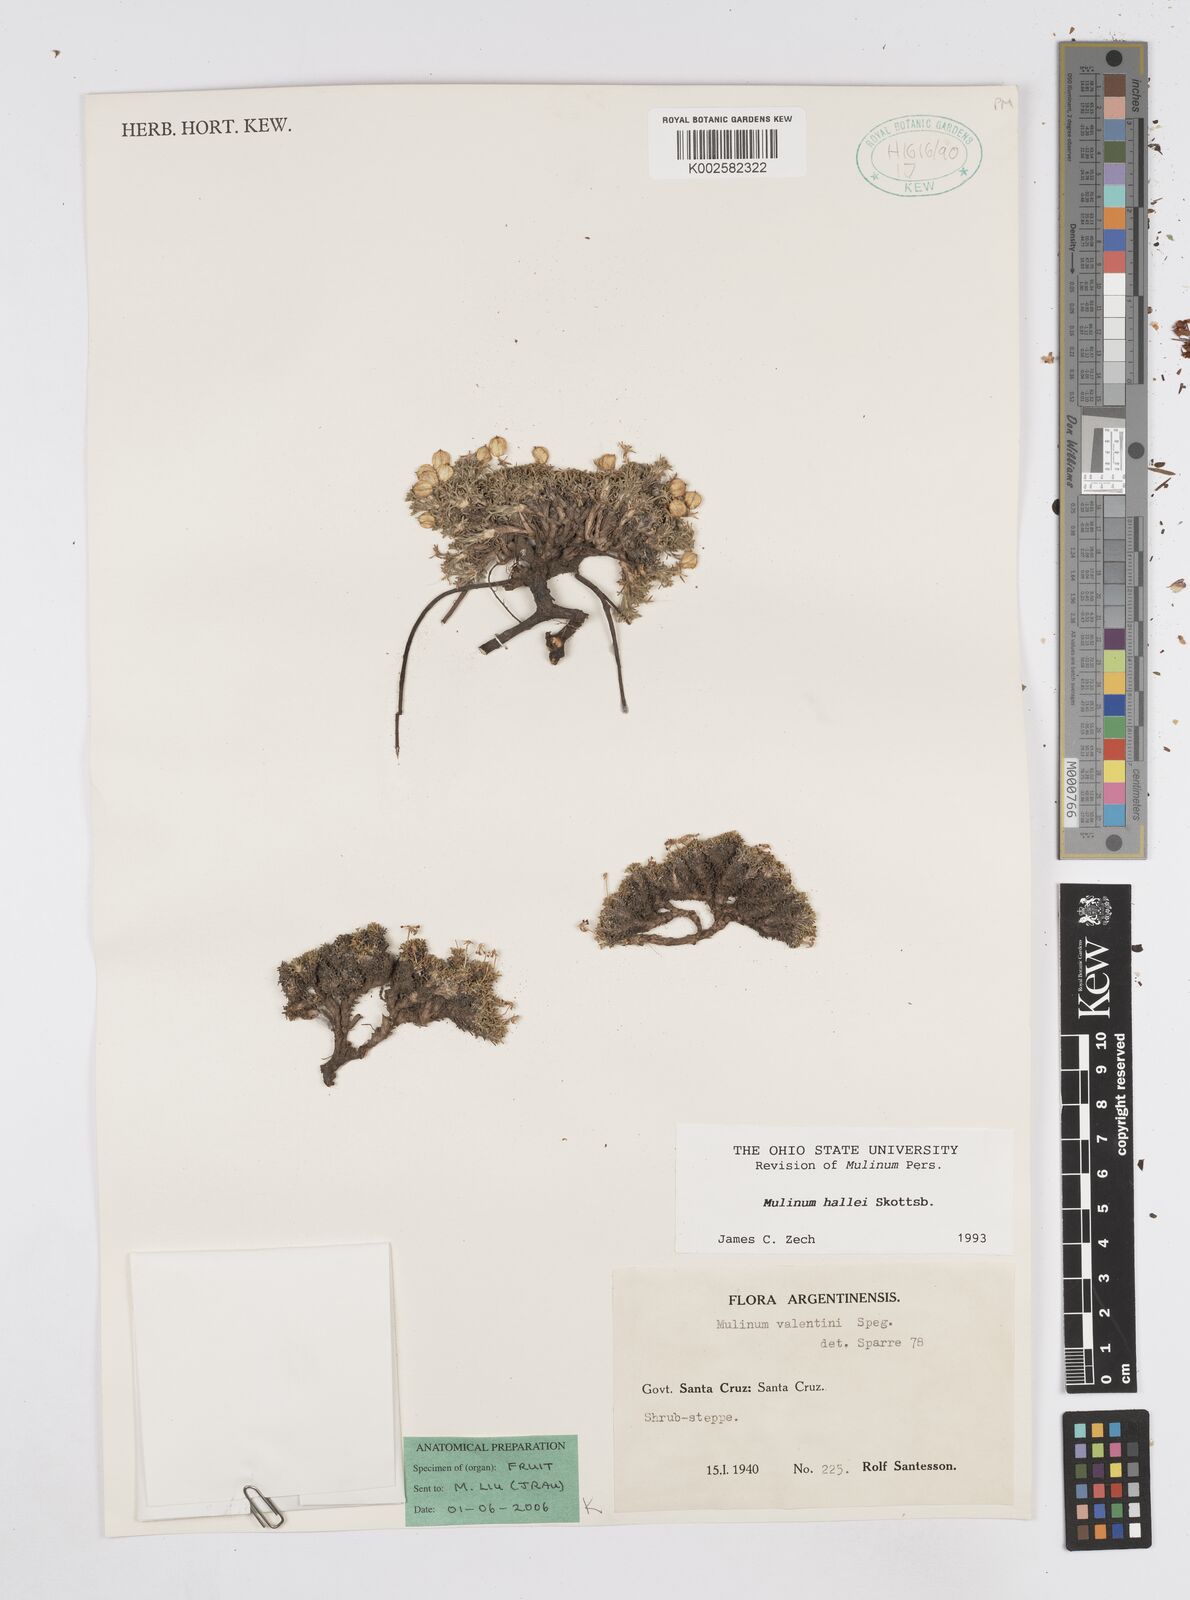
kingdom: Plantae
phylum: Tracheophyta
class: Magnoliopsida
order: Apiales
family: Apiaceae
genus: Azorella
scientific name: Azorella hallei
